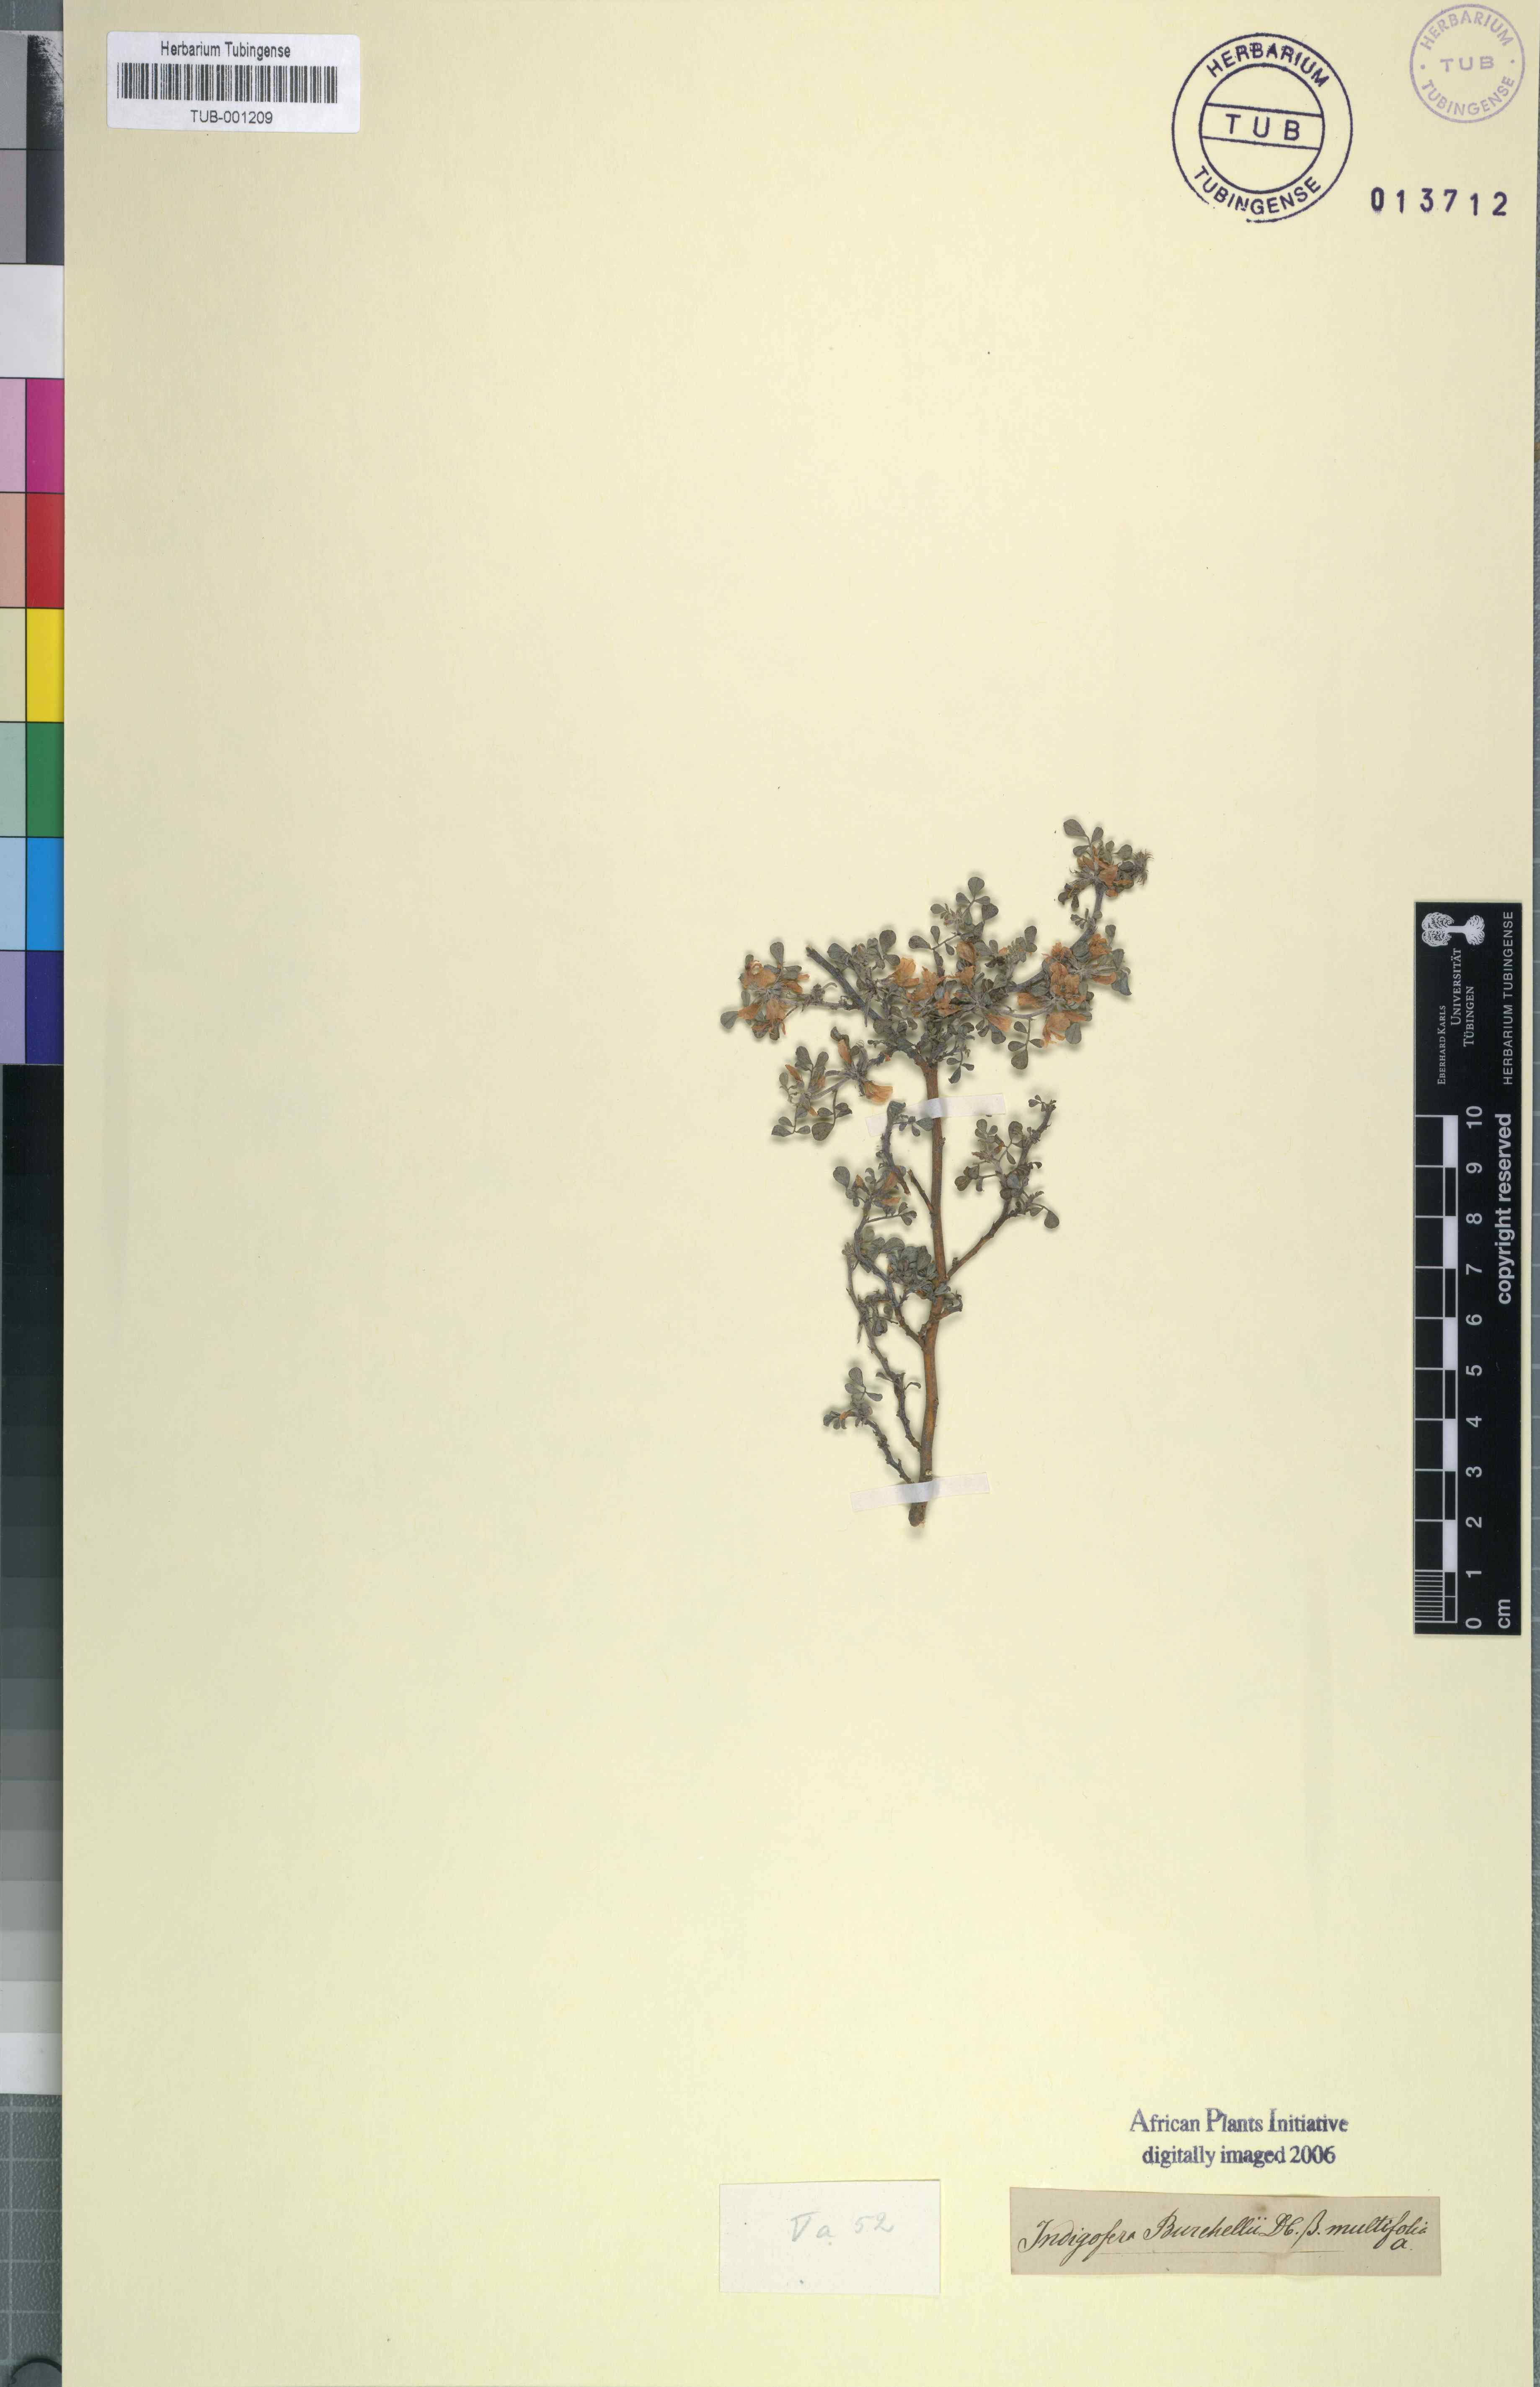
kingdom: Plantae
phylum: Tracheophyta
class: Magnoliopsida
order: Fabales
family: Fabaceae
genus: Indigofera
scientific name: Indigofera burchellii
